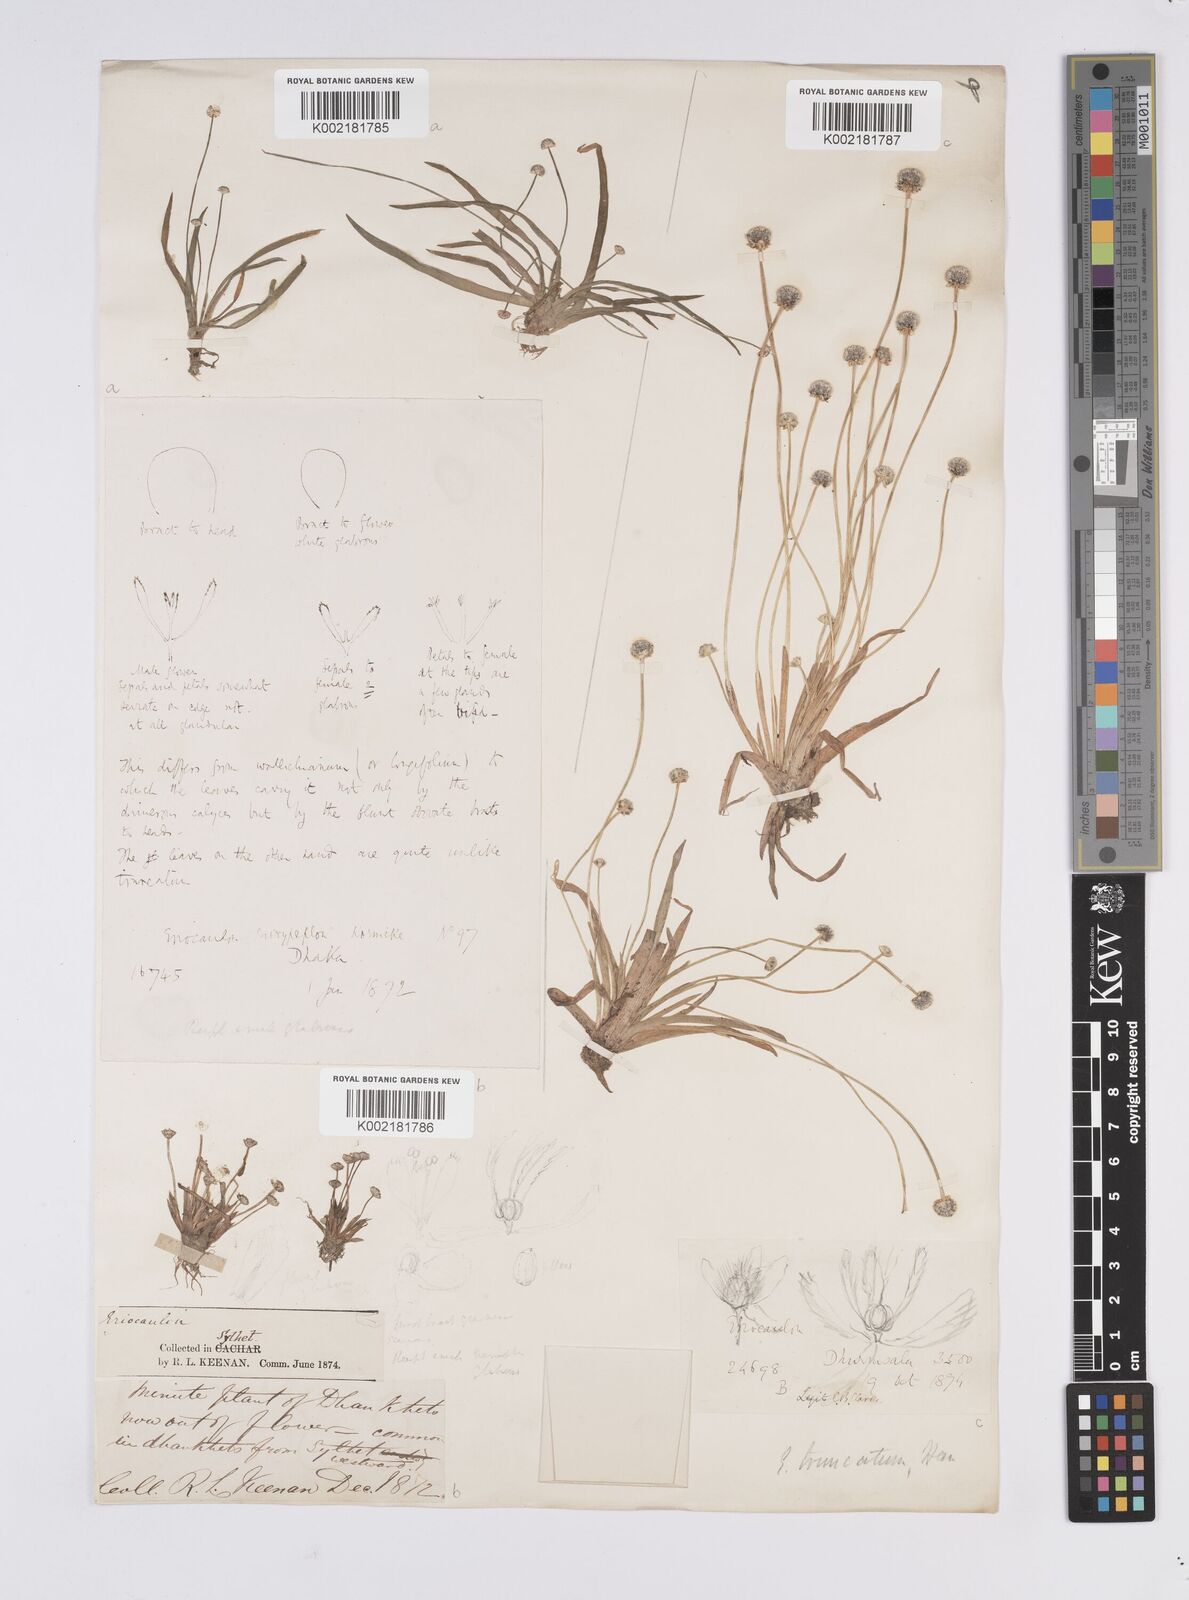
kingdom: Plantae
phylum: Tracheophyta
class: Liliopsida
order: Poales
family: Eriocaulaceae
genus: Eriocaulon
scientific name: Eriocaulon truncatum
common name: Short pipe-wort
